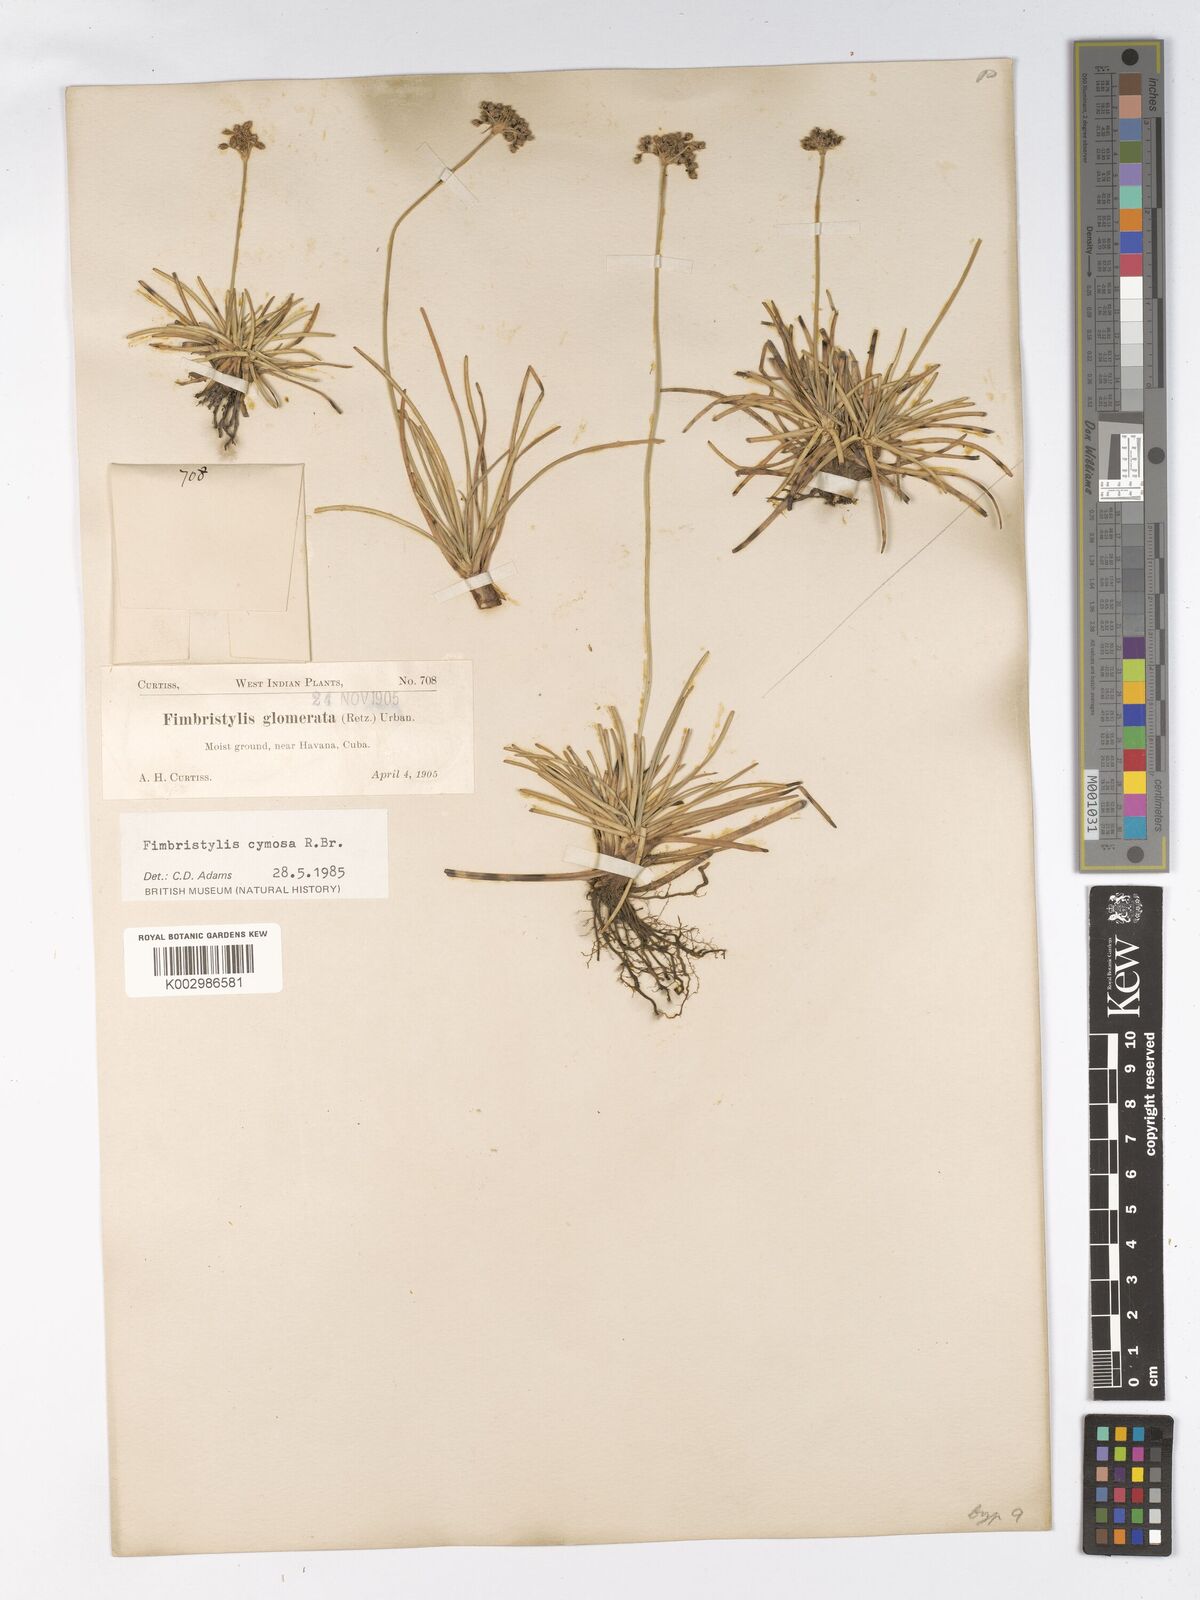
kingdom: Plantae
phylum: Tracheophyta
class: Liliopsida
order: Poales
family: Cyperaceae
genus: Fimbristylis
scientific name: Fimbristylis
